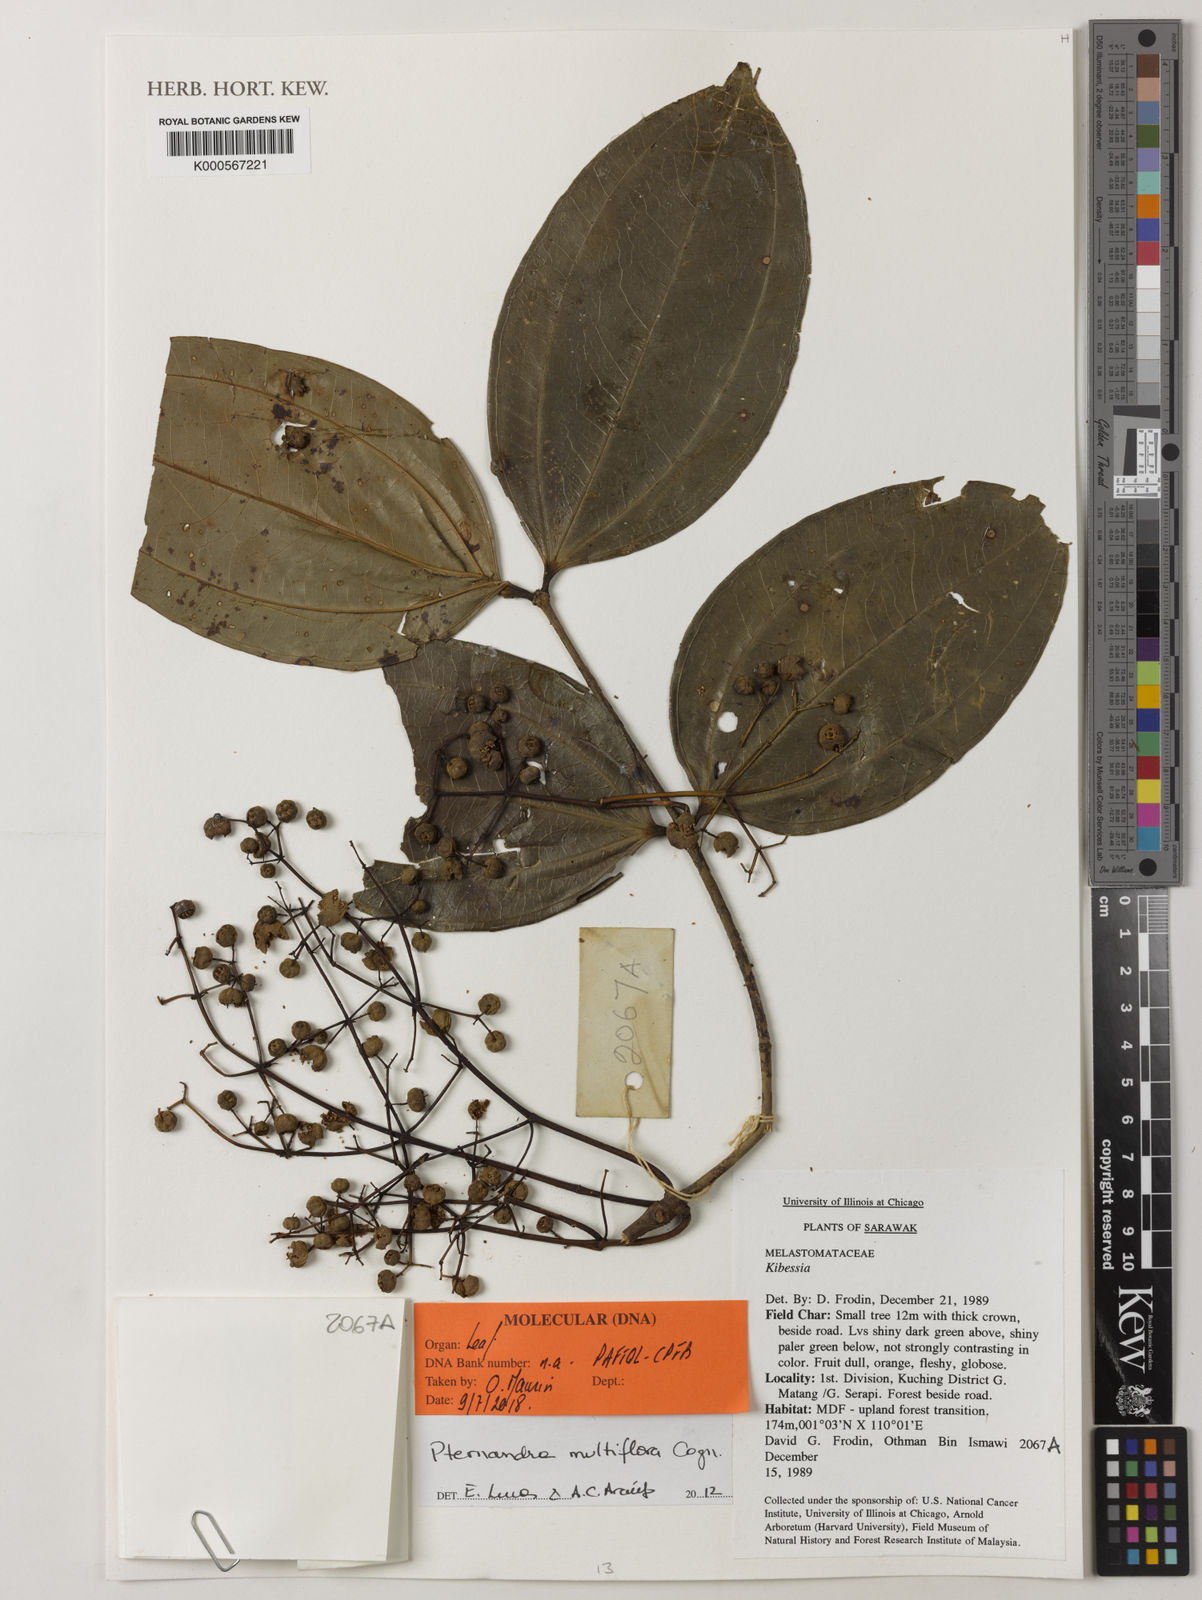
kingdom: Plantae
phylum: Tracheophyta
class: Magnoliopsida
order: Myrtales
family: Melastomataceae
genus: Pternandra
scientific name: Pternandra multiflora
